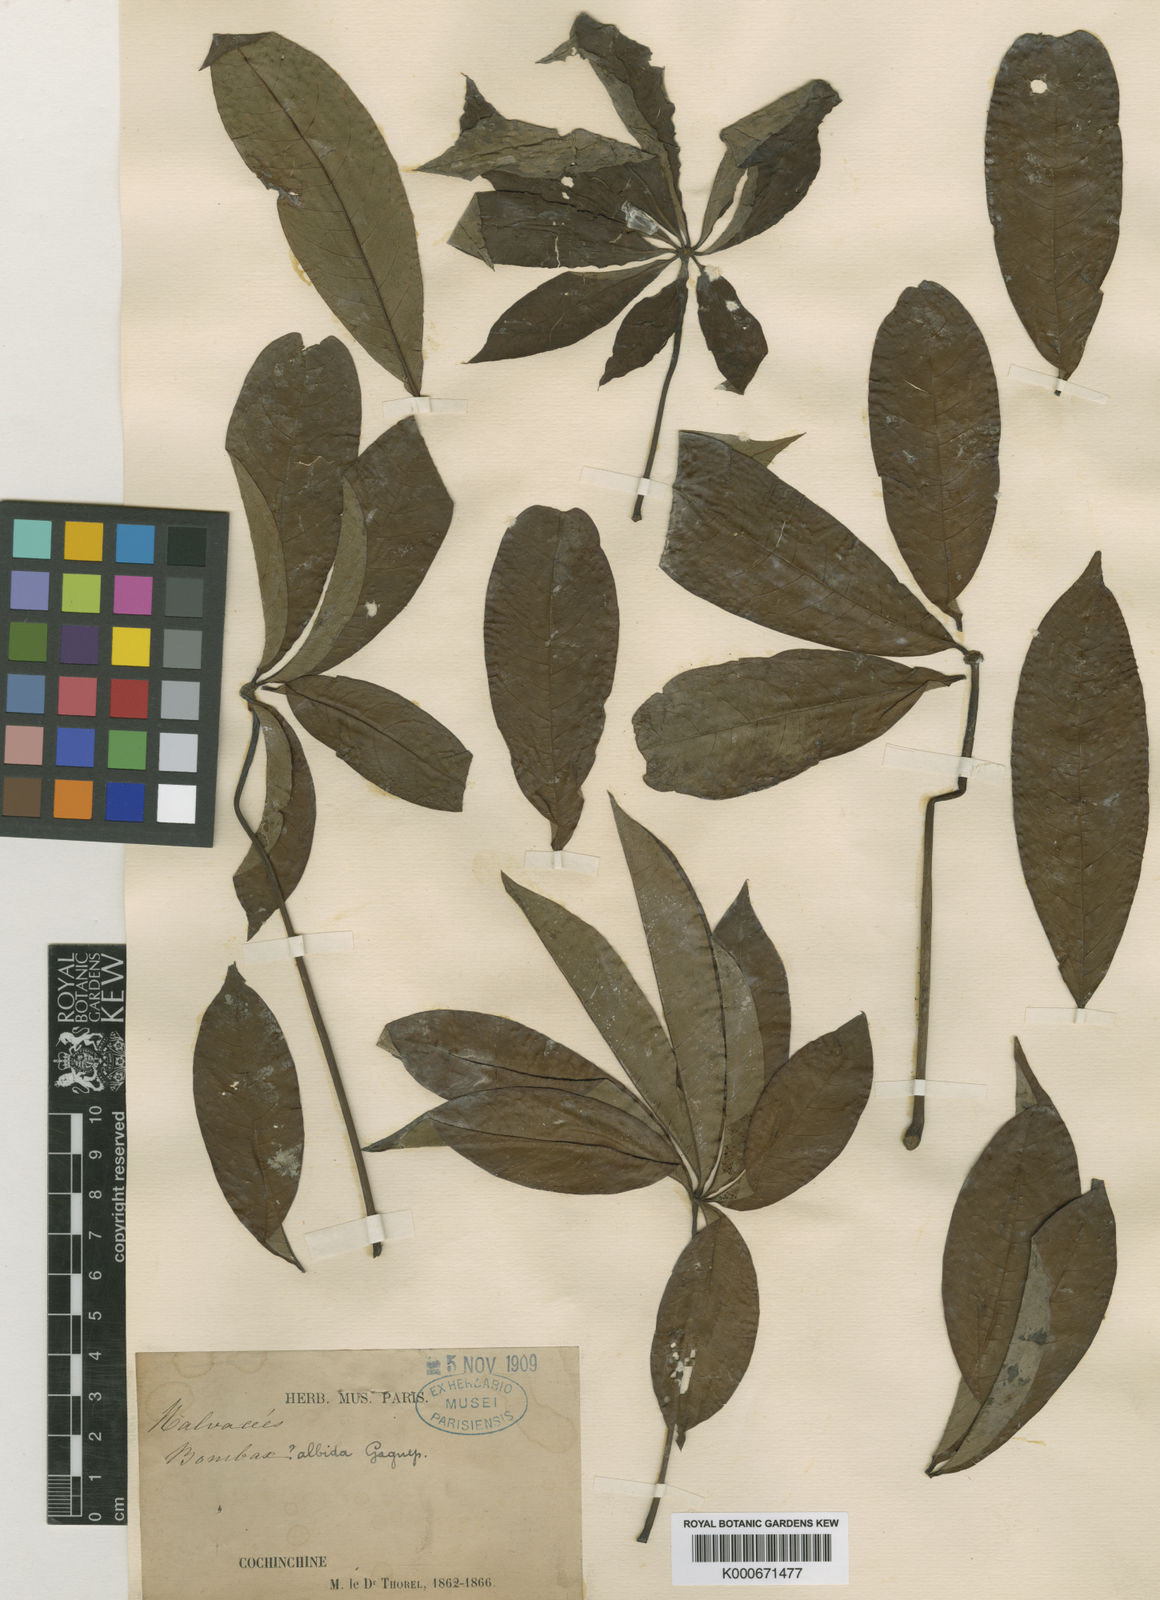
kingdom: Plantae
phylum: Tracheophyta
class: Magnoliopsida
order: Malvales
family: Malvaceae
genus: Bombax
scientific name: Bombax albidum
